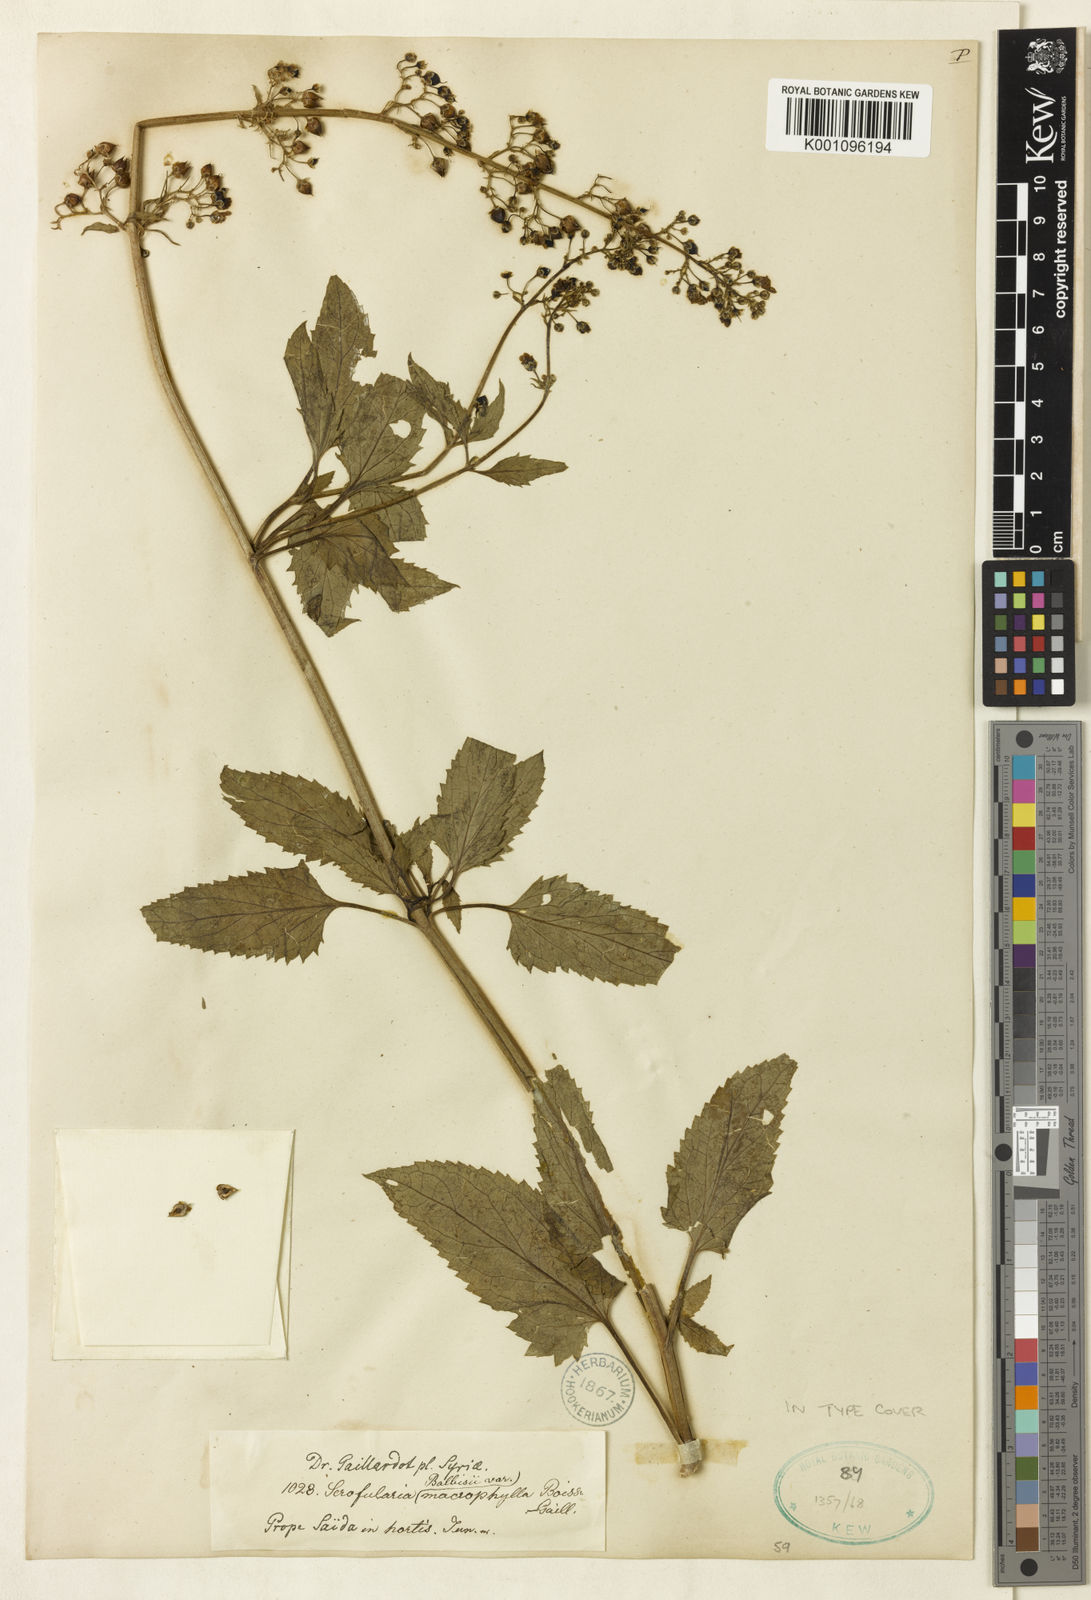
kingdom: Plantae
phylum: Tracheophyta
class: Magnoliopsida
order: Lamiales
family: Scrophulariaceae
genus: Scrophularia
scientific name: Scrophularia macrophylla
